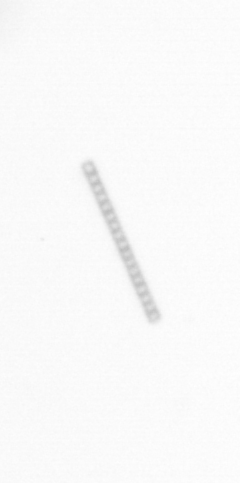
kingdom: Chromista
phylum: Ochrophyta
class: Bacillariophyceae
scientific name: Bacillariophyceae
